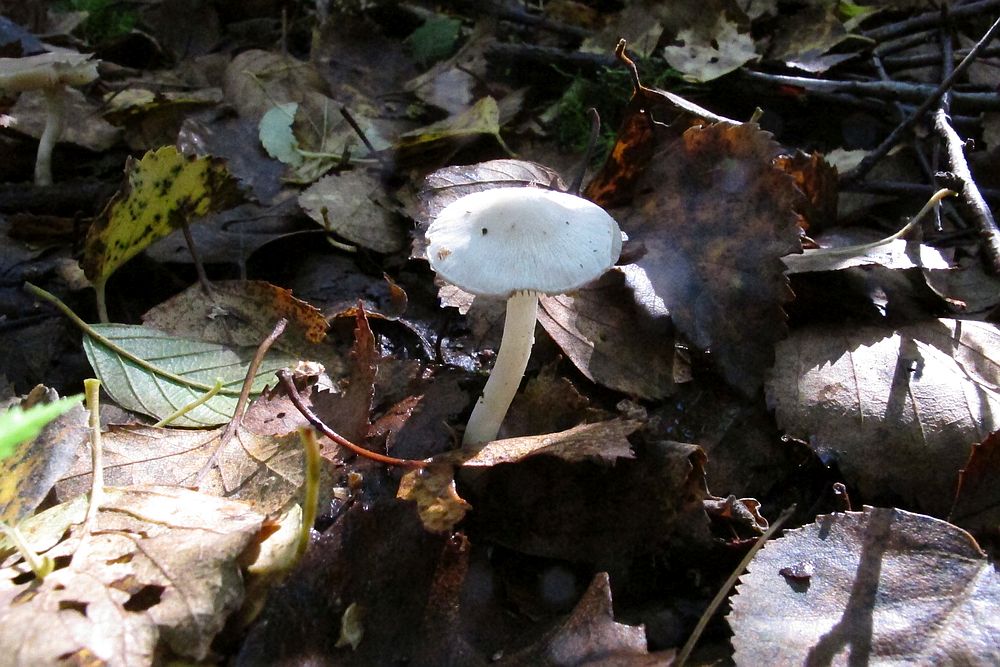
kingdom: Fungi
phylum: Basidiomycota
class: Agaricomycetes
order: Agaricales
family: Inocybaceae
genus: Inocybe
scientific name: Inocybe
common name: almindelig trævlhat
